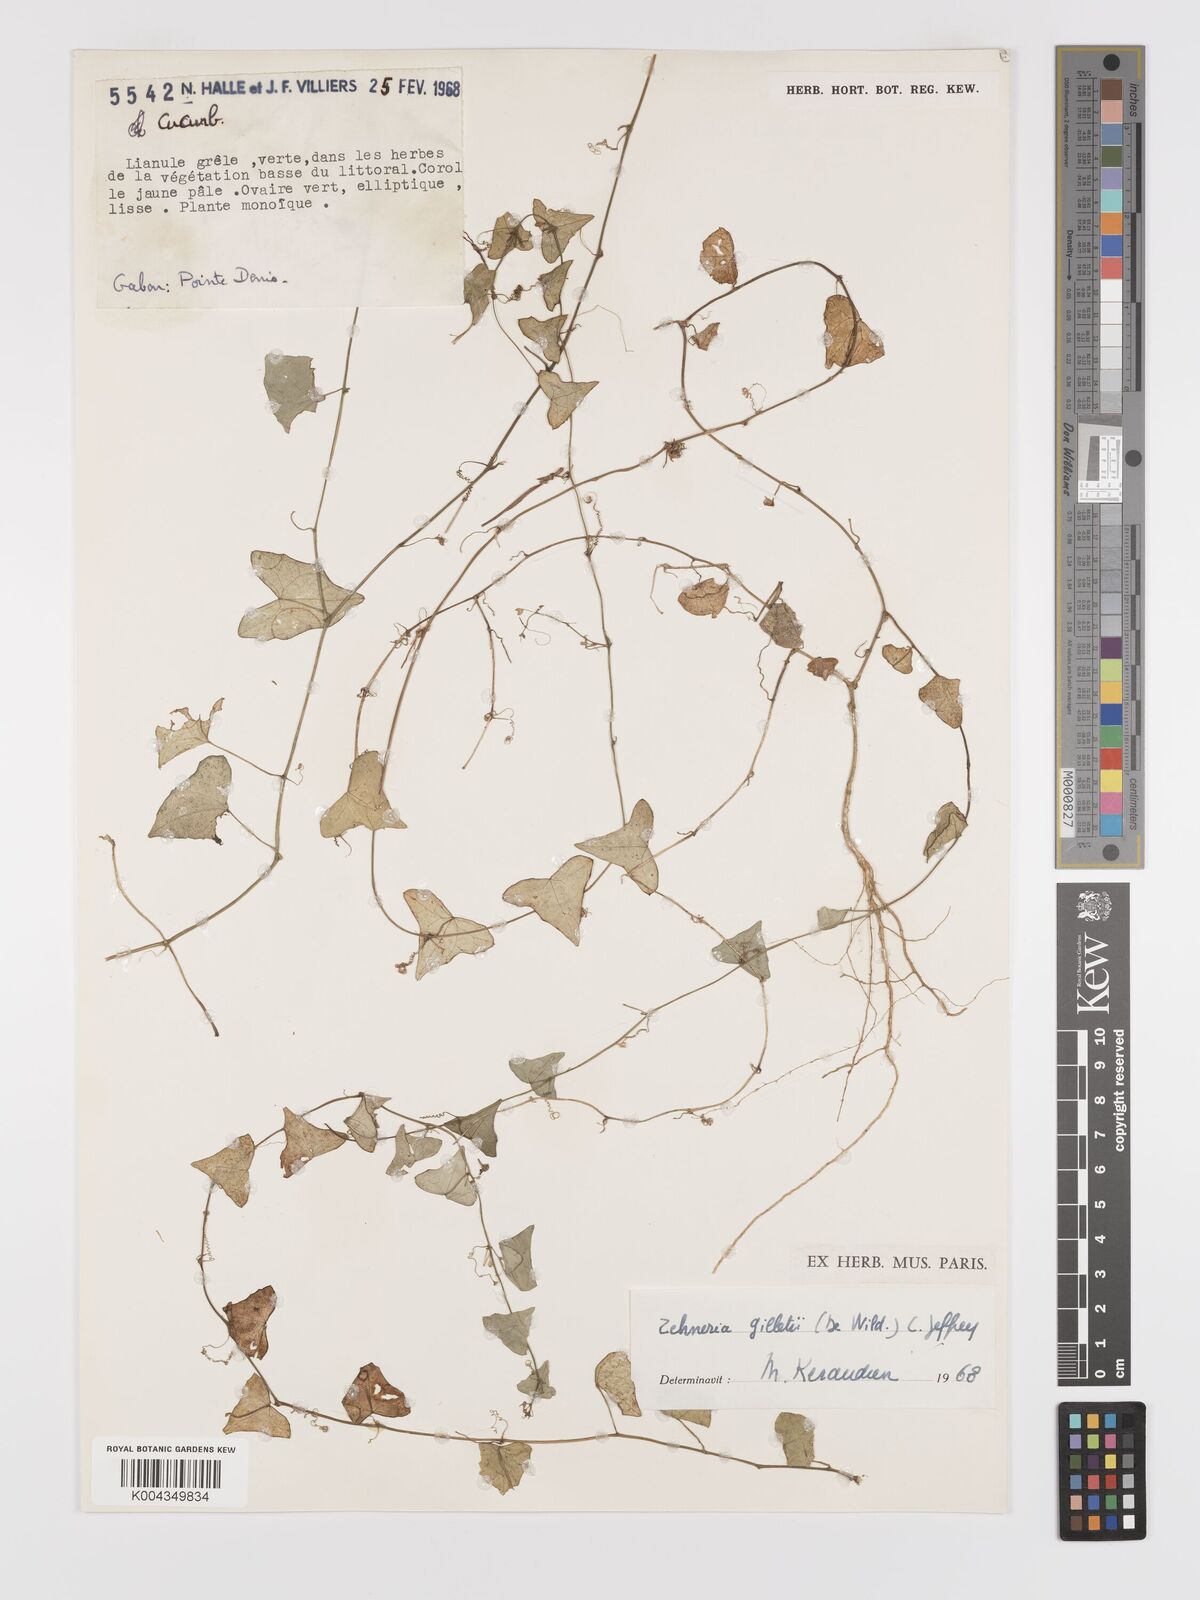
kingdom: Plantae
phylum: Tracheophyta
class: Magnoliopsida
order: Cucurbitales
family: Cucurbitaceae
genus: Zehneria
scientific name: Zehneria gilletii
